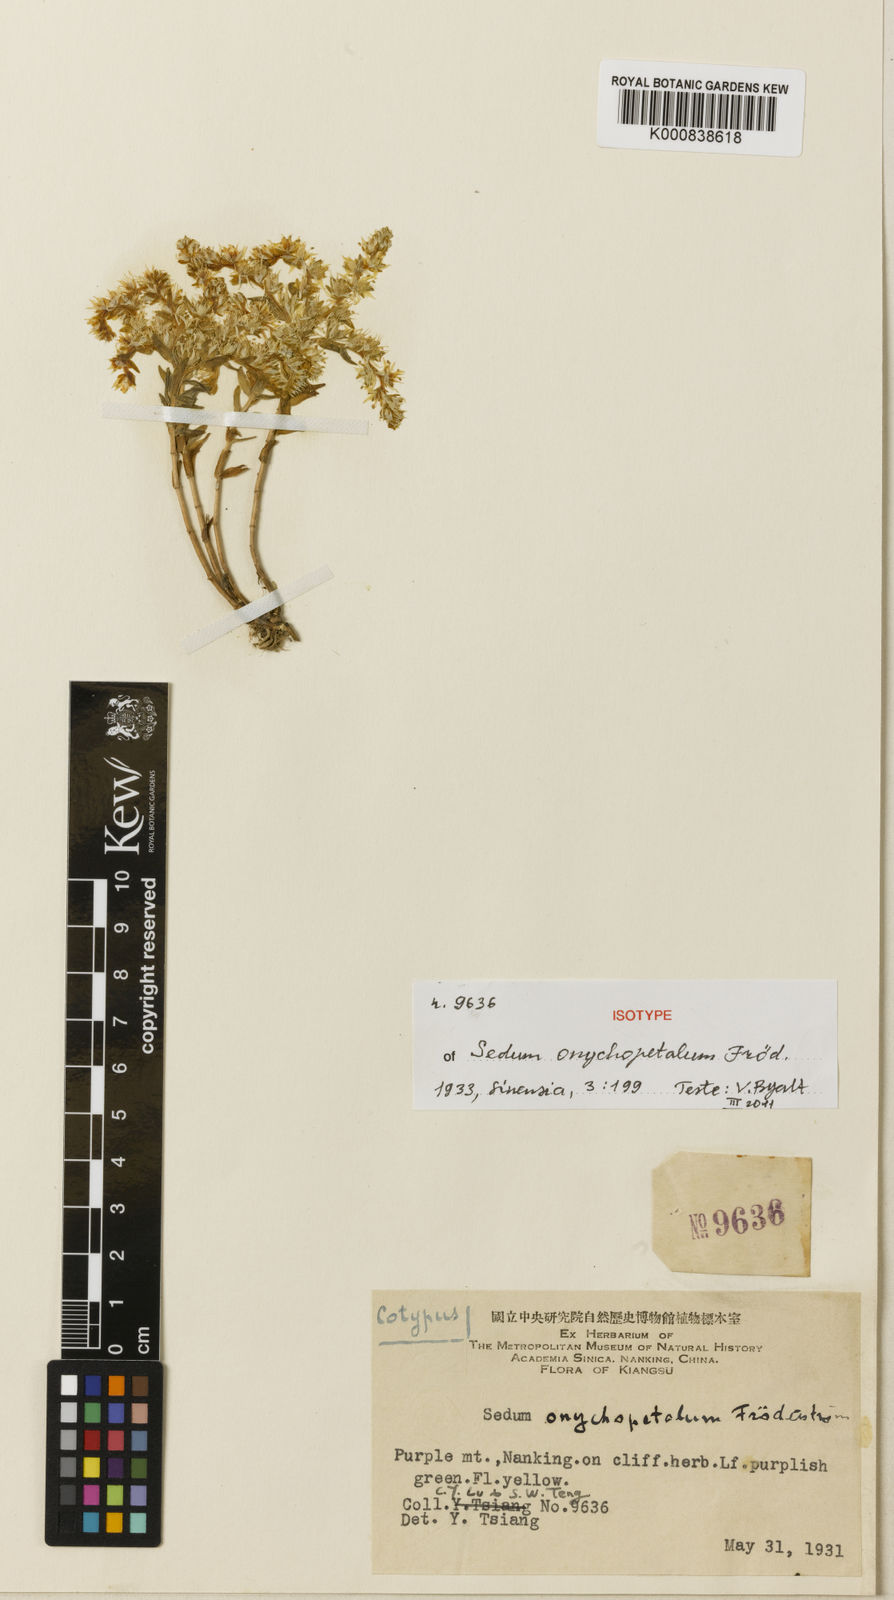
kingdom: Plantae
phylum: Tracheophyta
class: Magnoliopsida
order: Saxifragales
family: Crassulaceae
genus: Sedum
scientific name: Sedum
